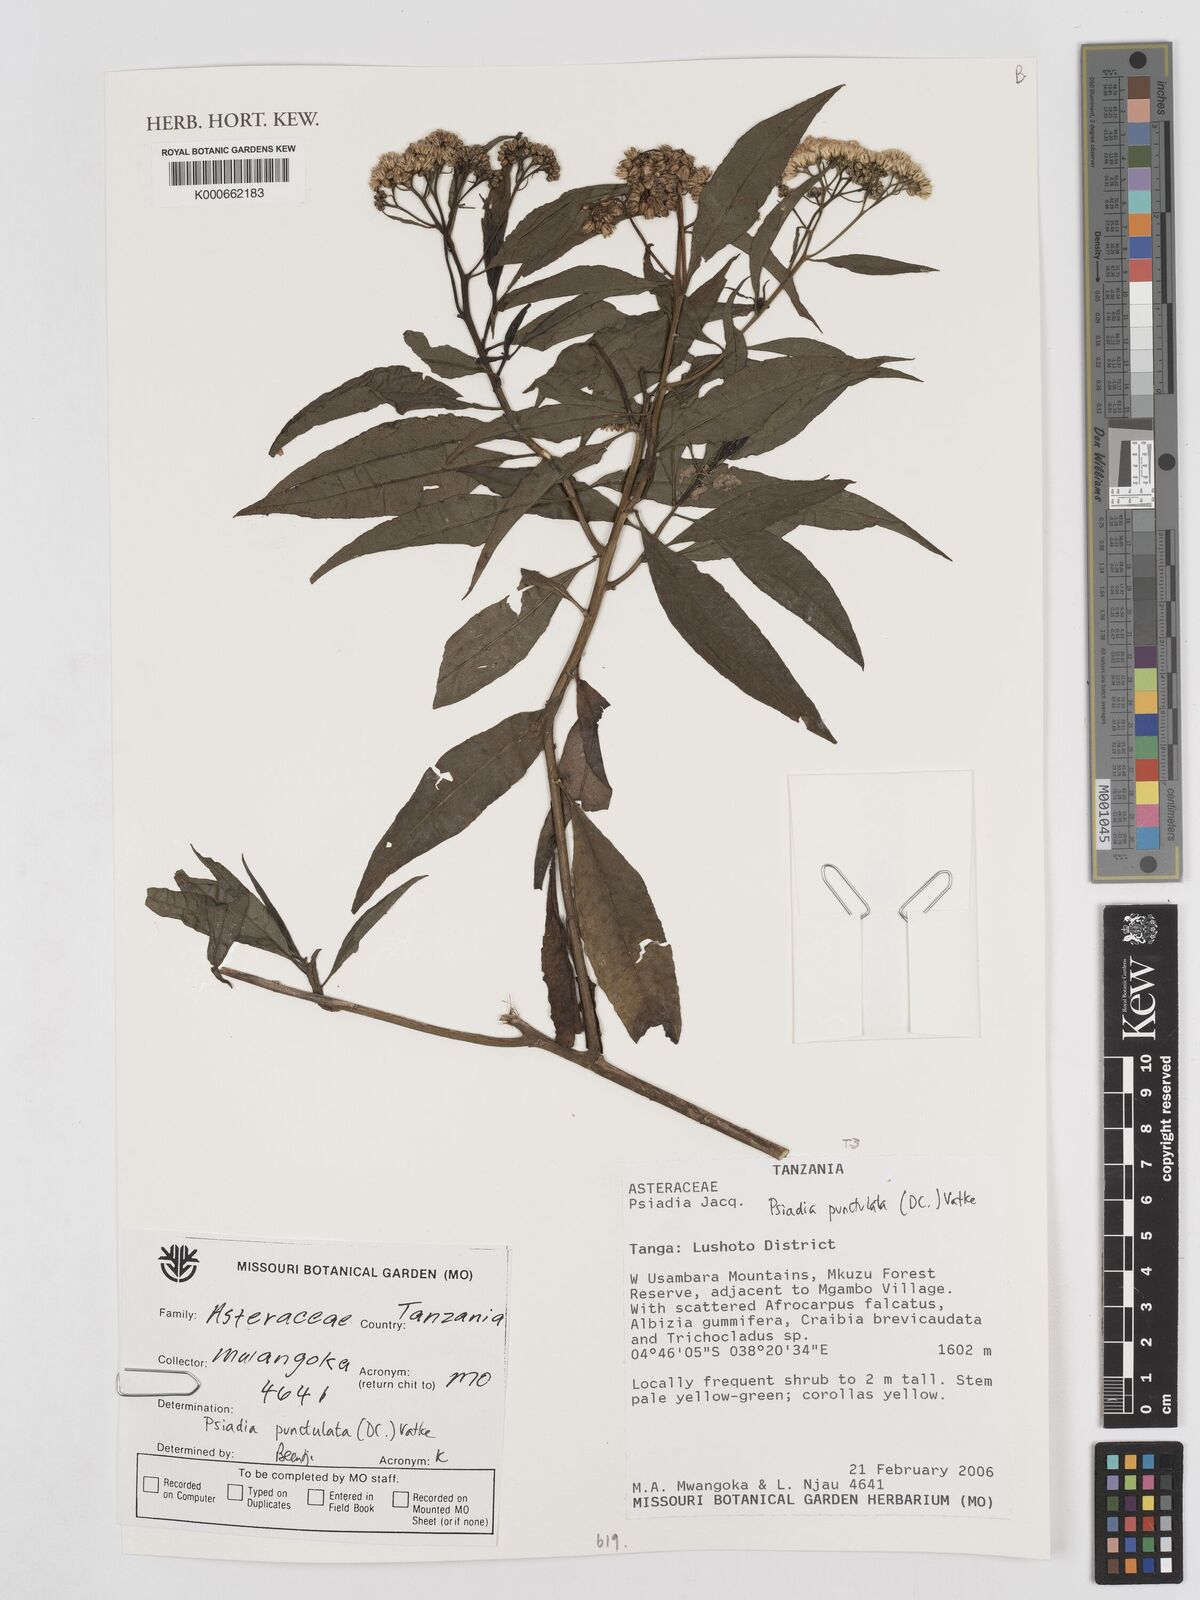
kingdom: Plantae
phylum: Tracheophyta
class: Magnoliopsida
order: Asterales
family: Asteraceae
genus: Psiadia
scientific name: Psiadia punctulata
